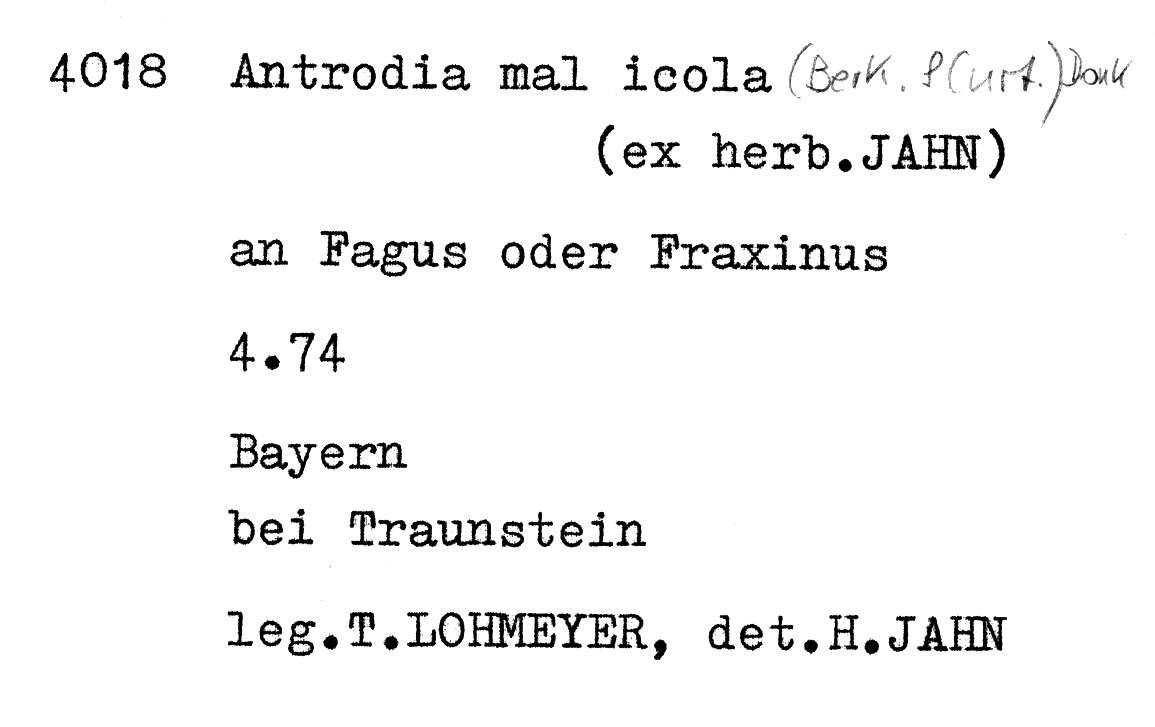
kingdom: Plantae
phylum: Tracheophyta
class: Magnoliopsida
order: Fagales
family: Fagaceae
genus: Fagus
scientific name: Fagus sylvatica
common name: Beech
